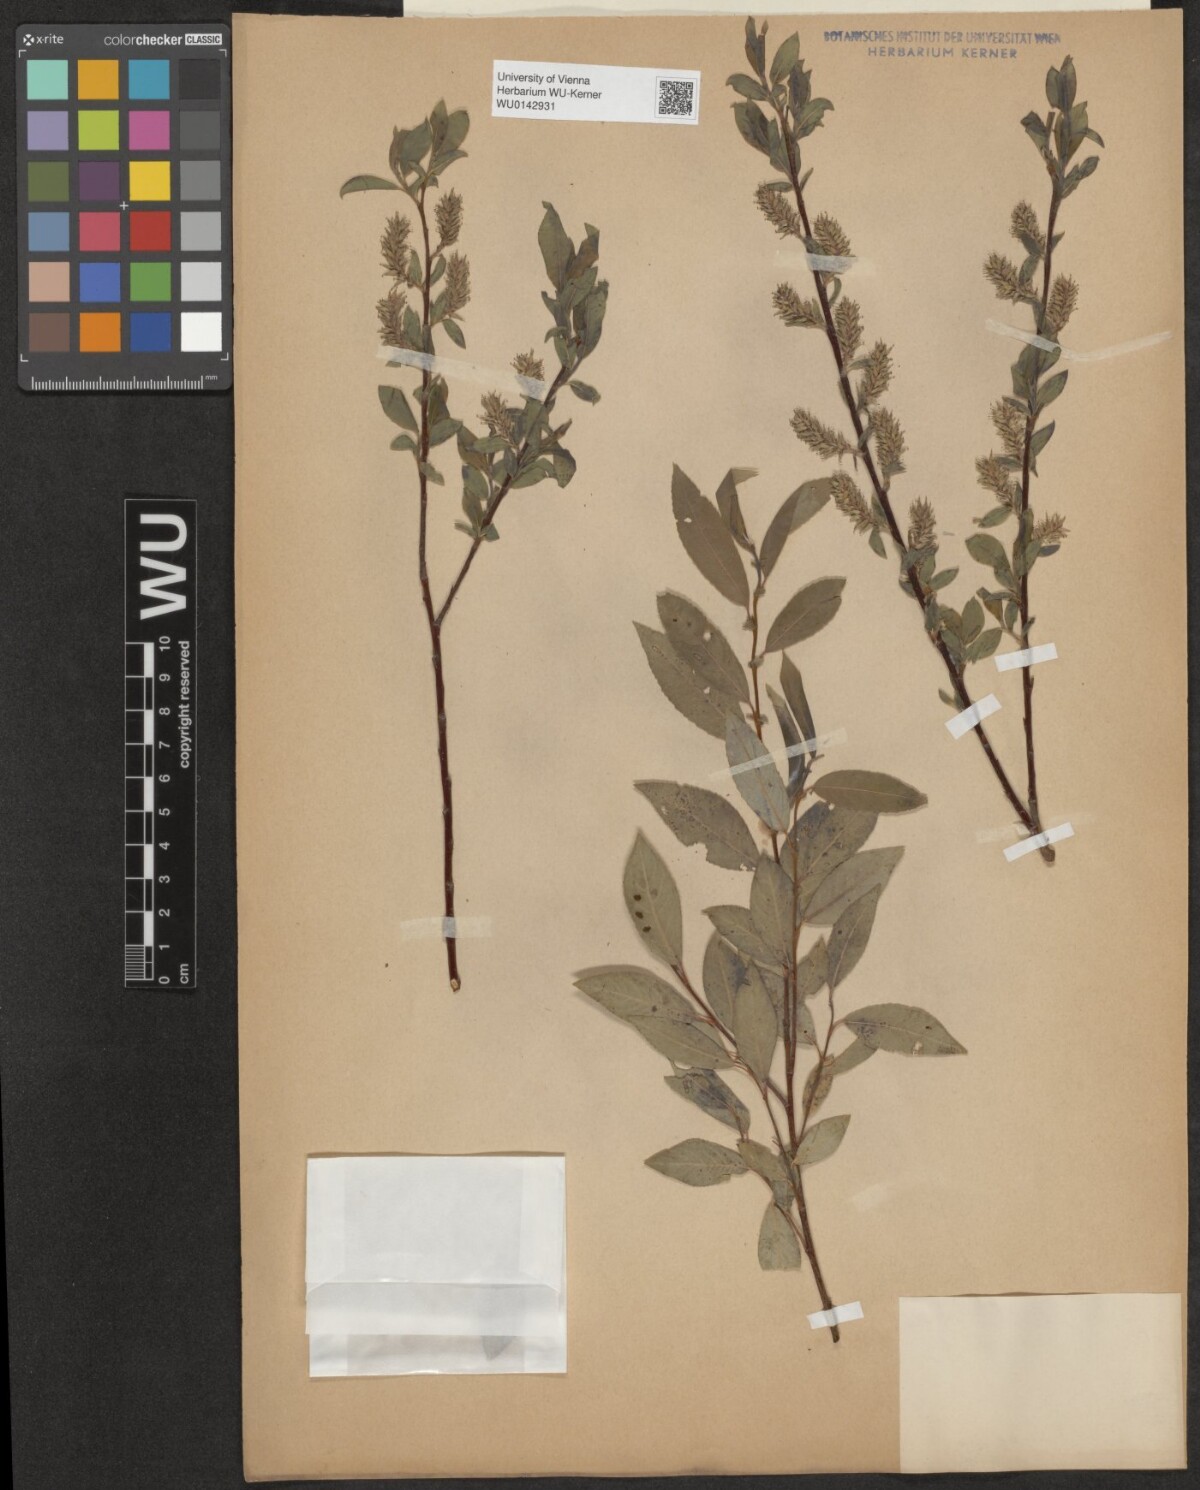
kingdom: Plantae
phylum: Tracheophyta
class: Magnoliopsida
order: Malpighiales
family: Salicaceae
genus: Salix
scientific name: Salix myrsinifolia
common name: Dark-leaved willow
